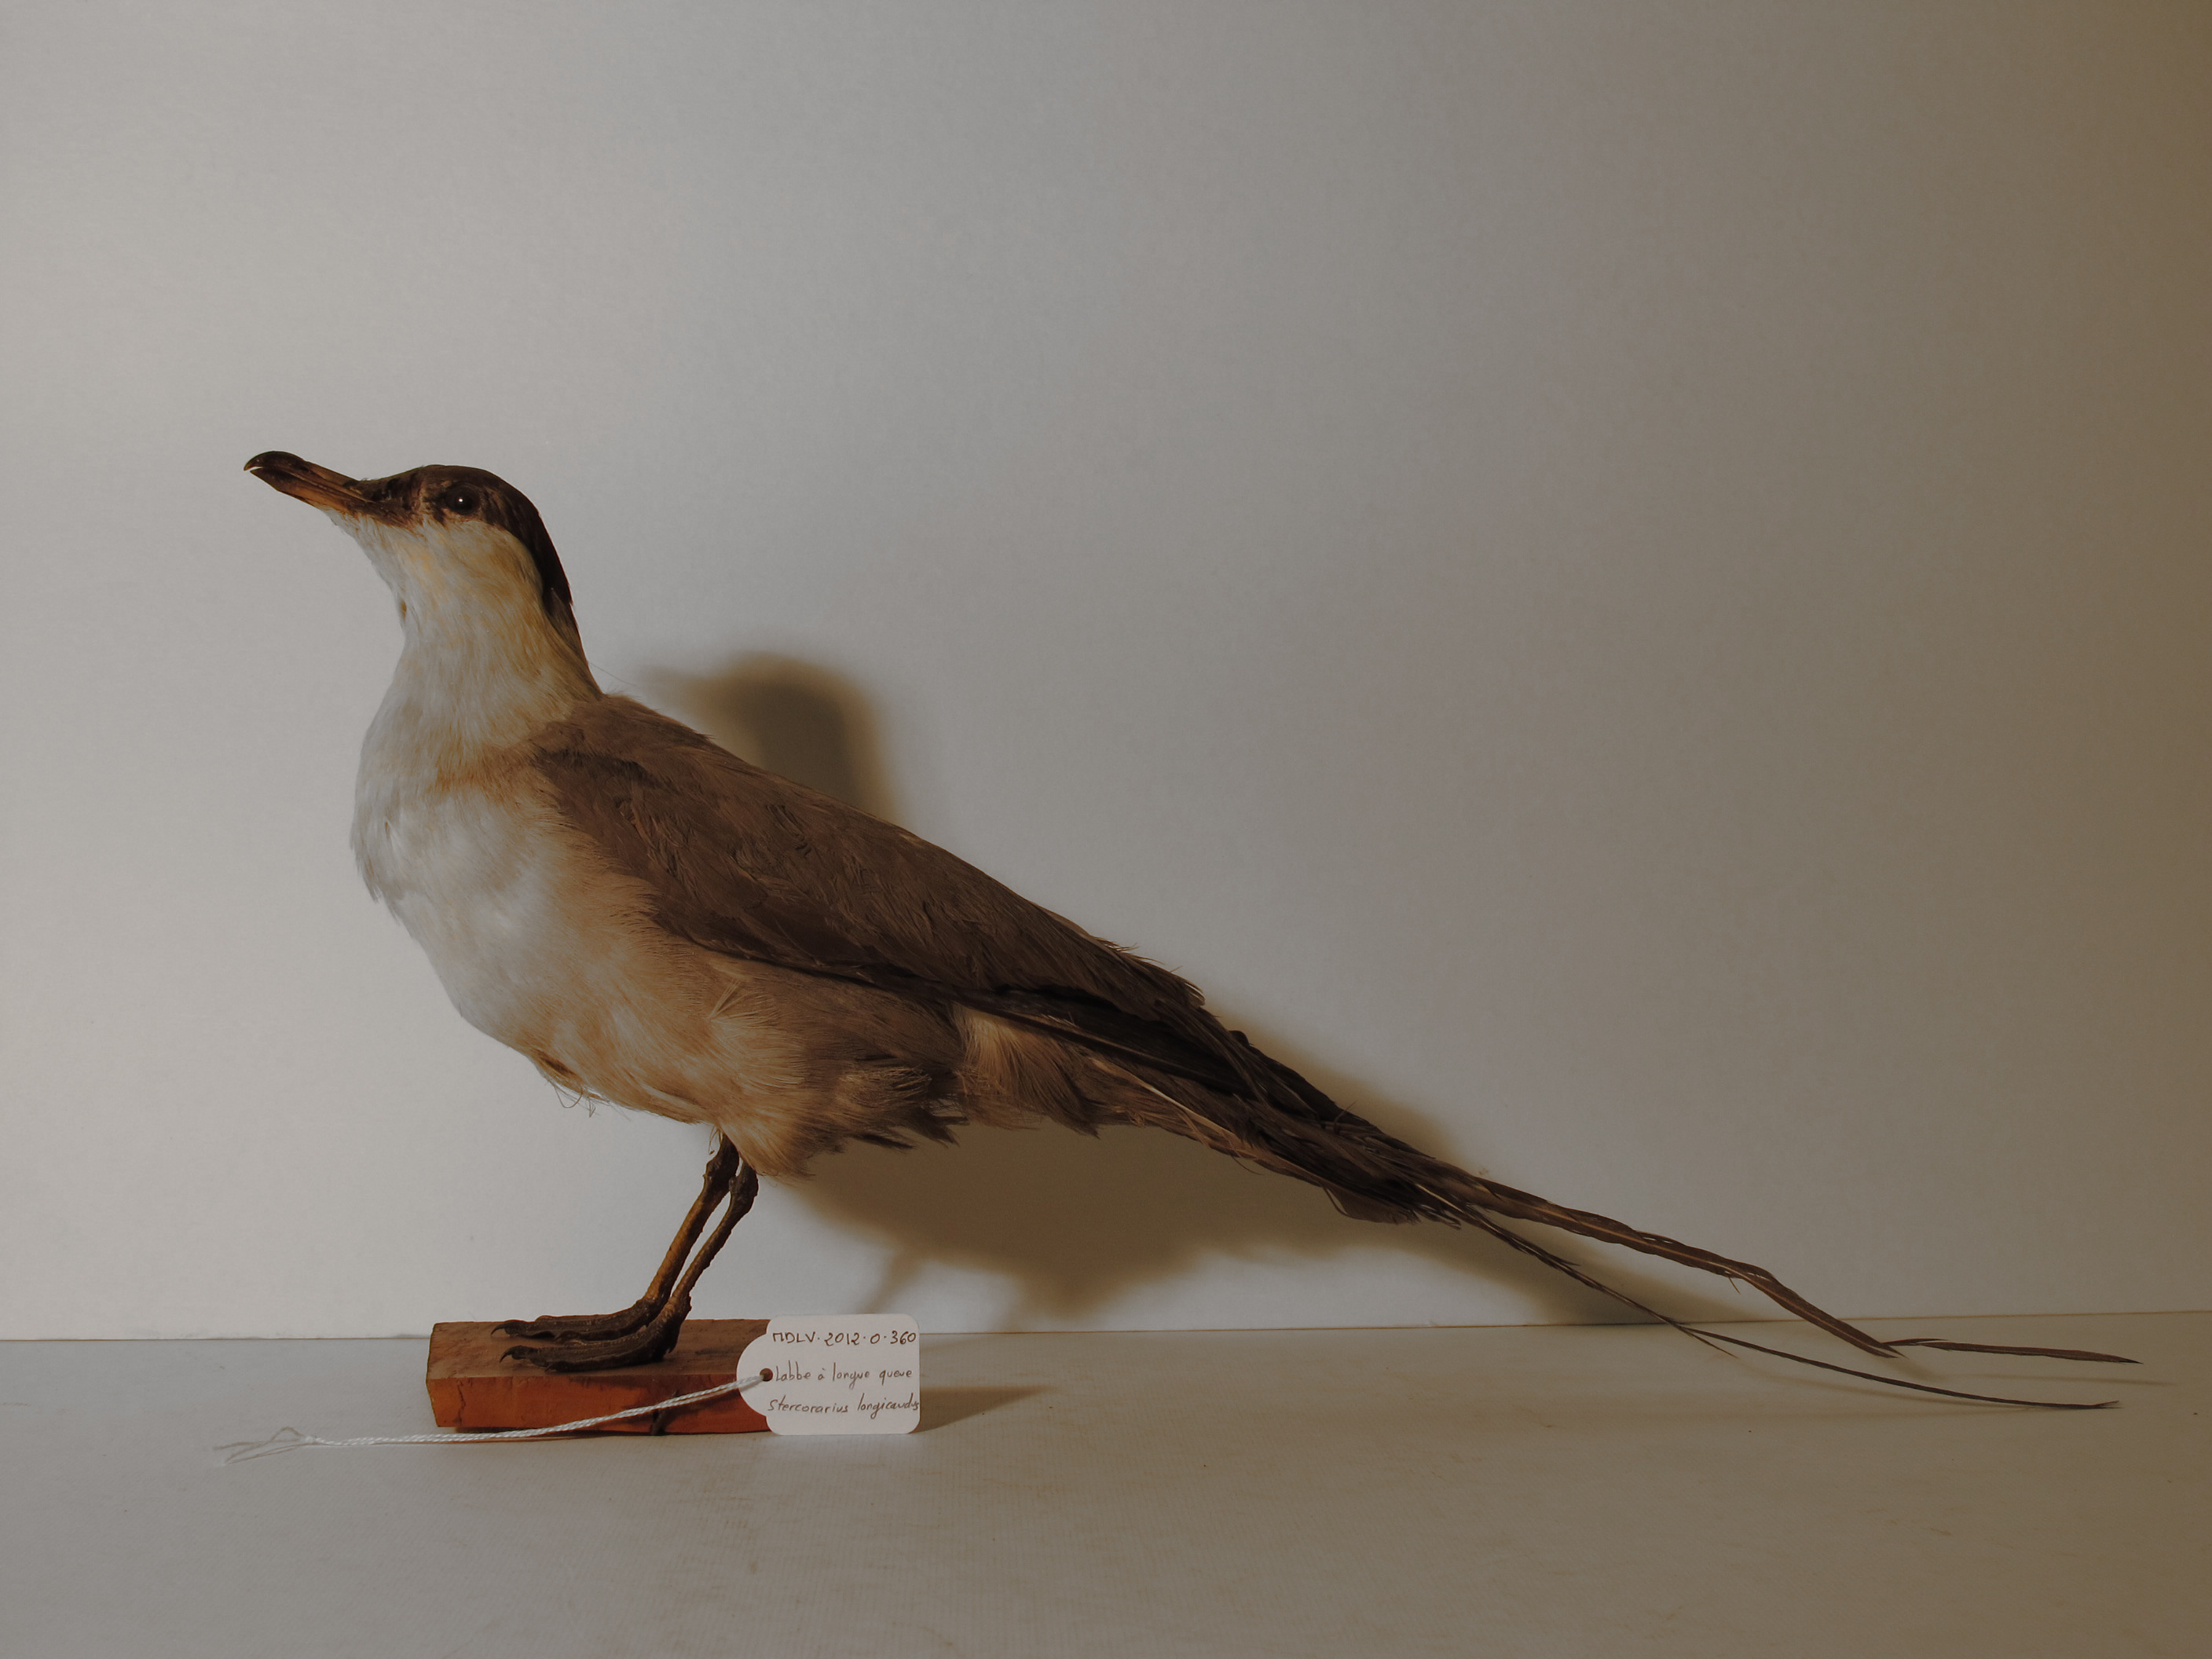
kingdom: Animalia
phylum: Chordata
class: Aves
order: Charadriiformes
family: Stercorariidae
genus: Stercorarius
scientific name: Stercorarius longicaudus
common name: Long-tailed Skua
